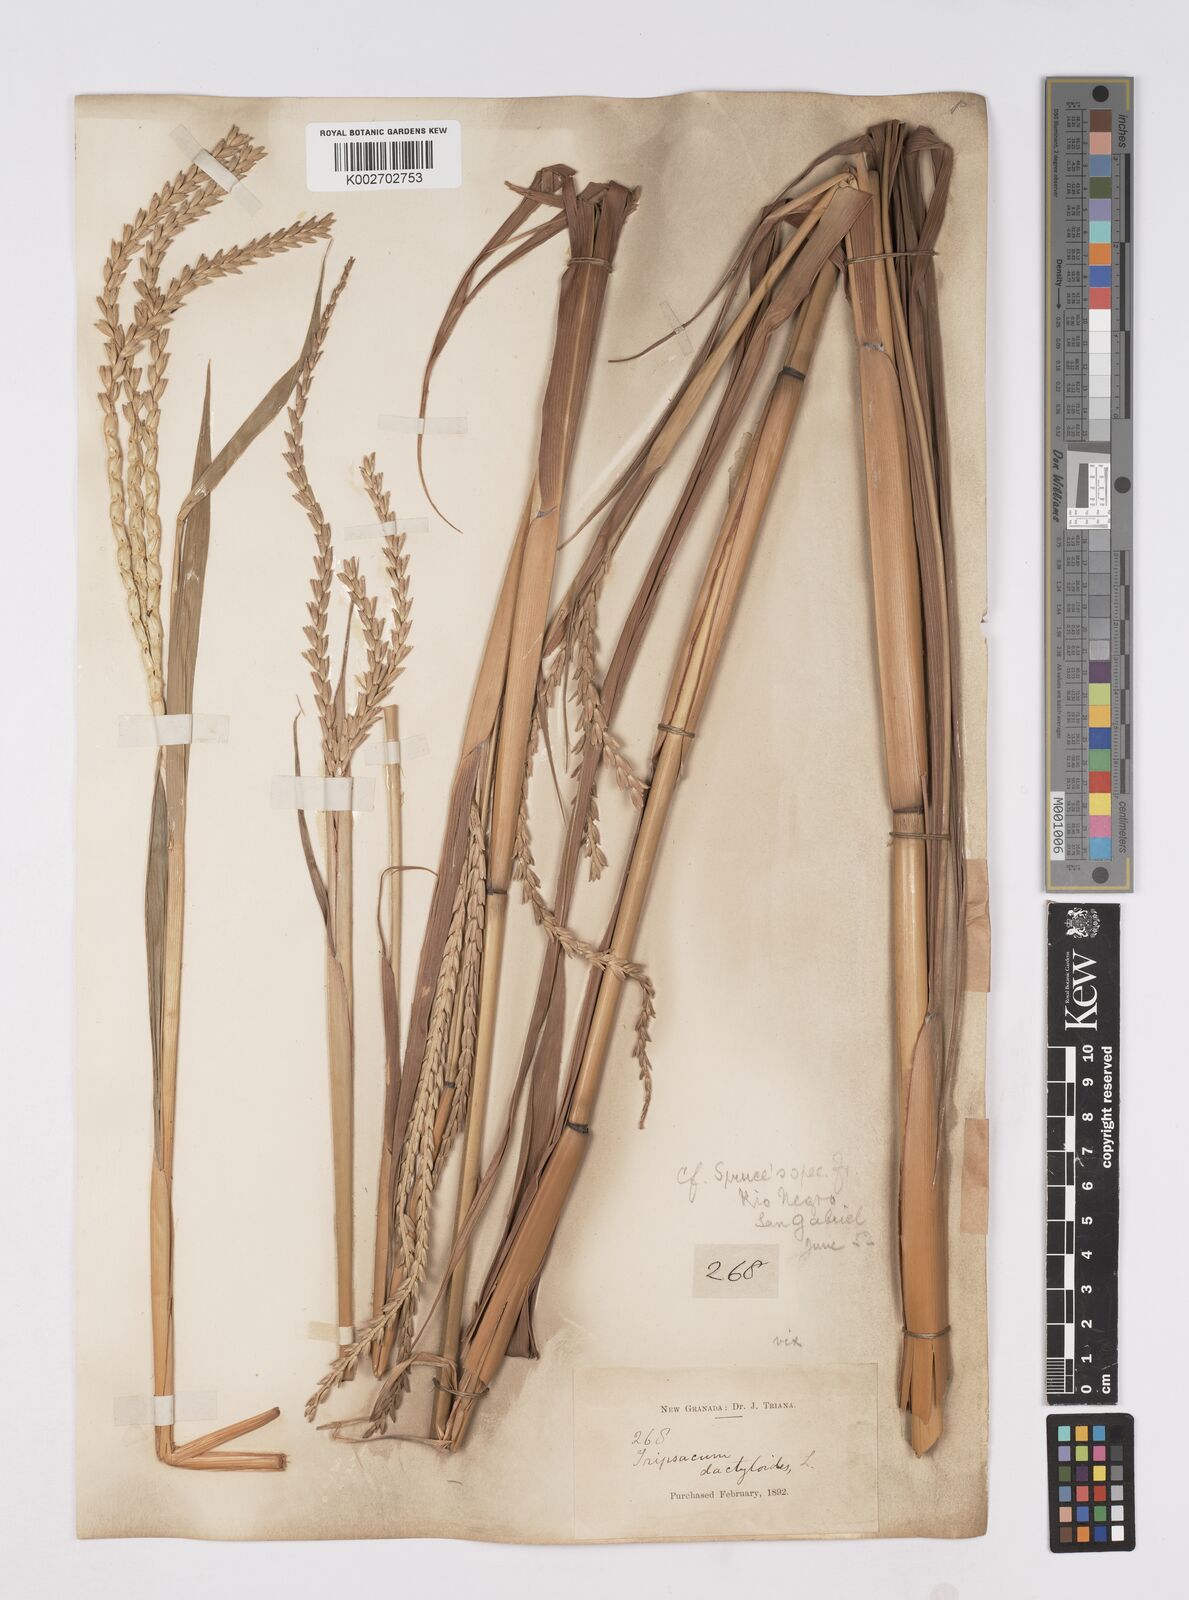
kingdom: Plantae
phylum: Tracheophyta
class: Liliopsida
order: Poales
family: Poaceae
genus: Tripsacum
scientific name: Tripsacum australe
